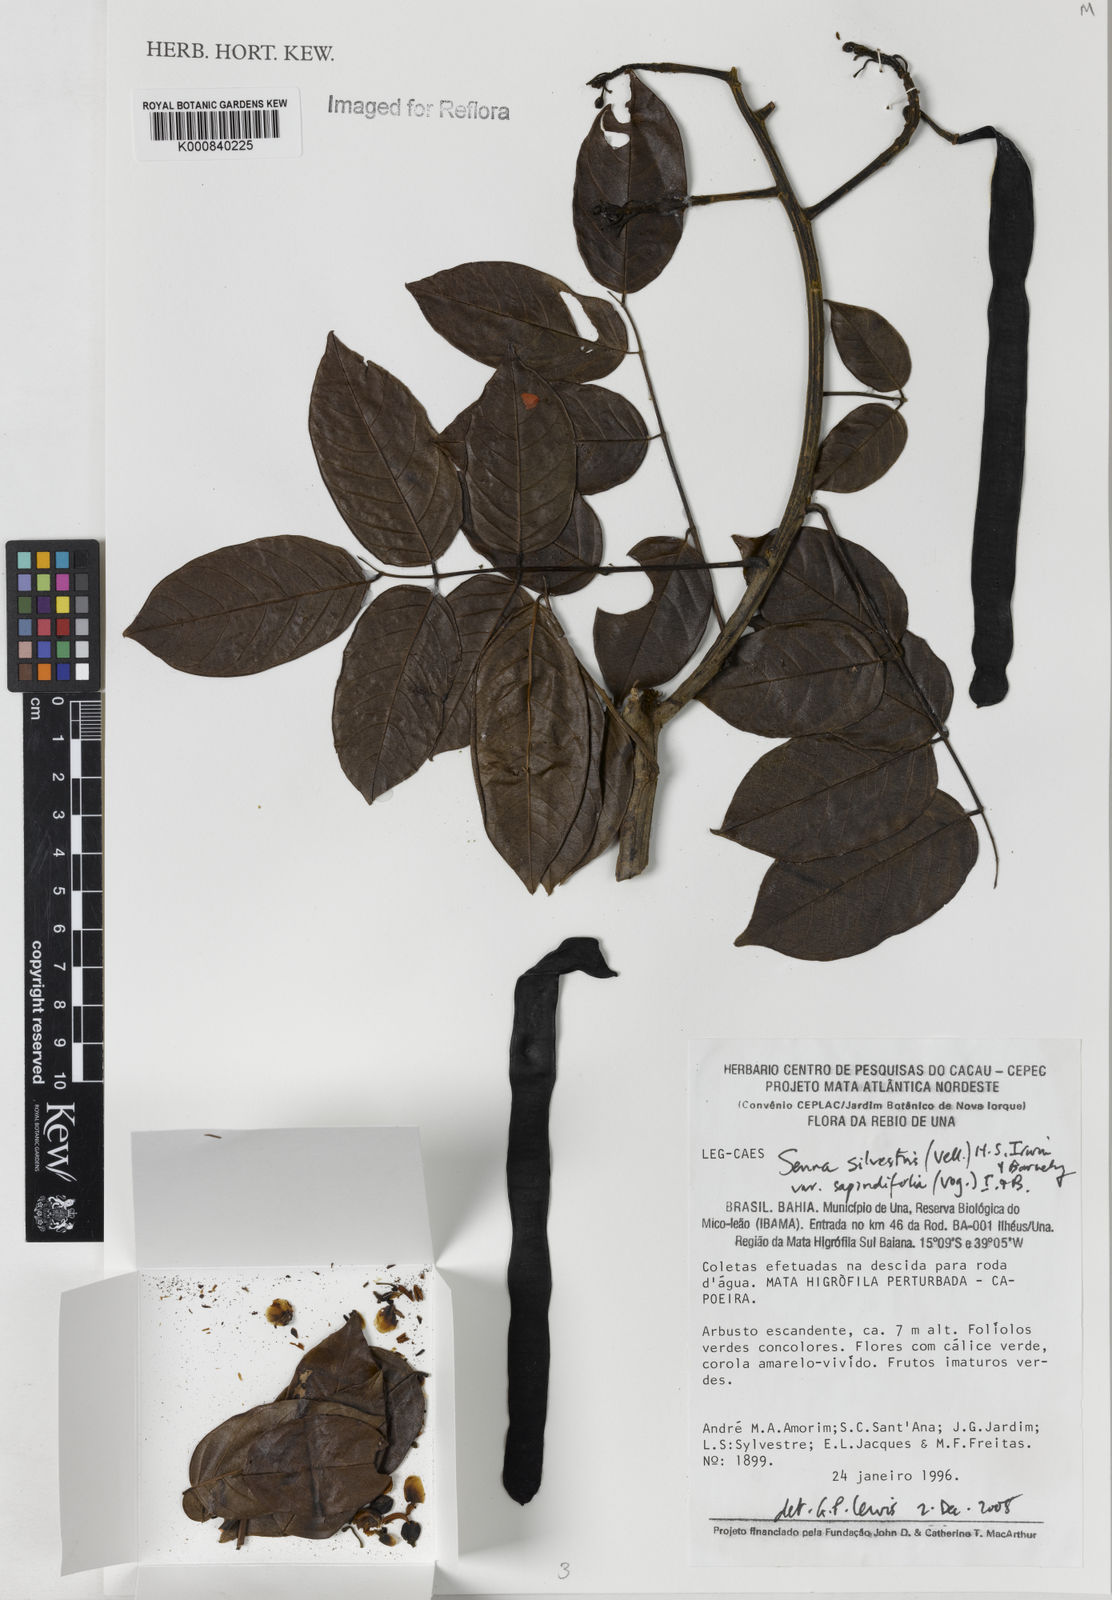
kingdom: Plantae
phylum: Tracheophyta
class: Magnoliopsida
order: Fabales
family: Fabaceae
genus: Senna
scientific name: Senna silvestris
